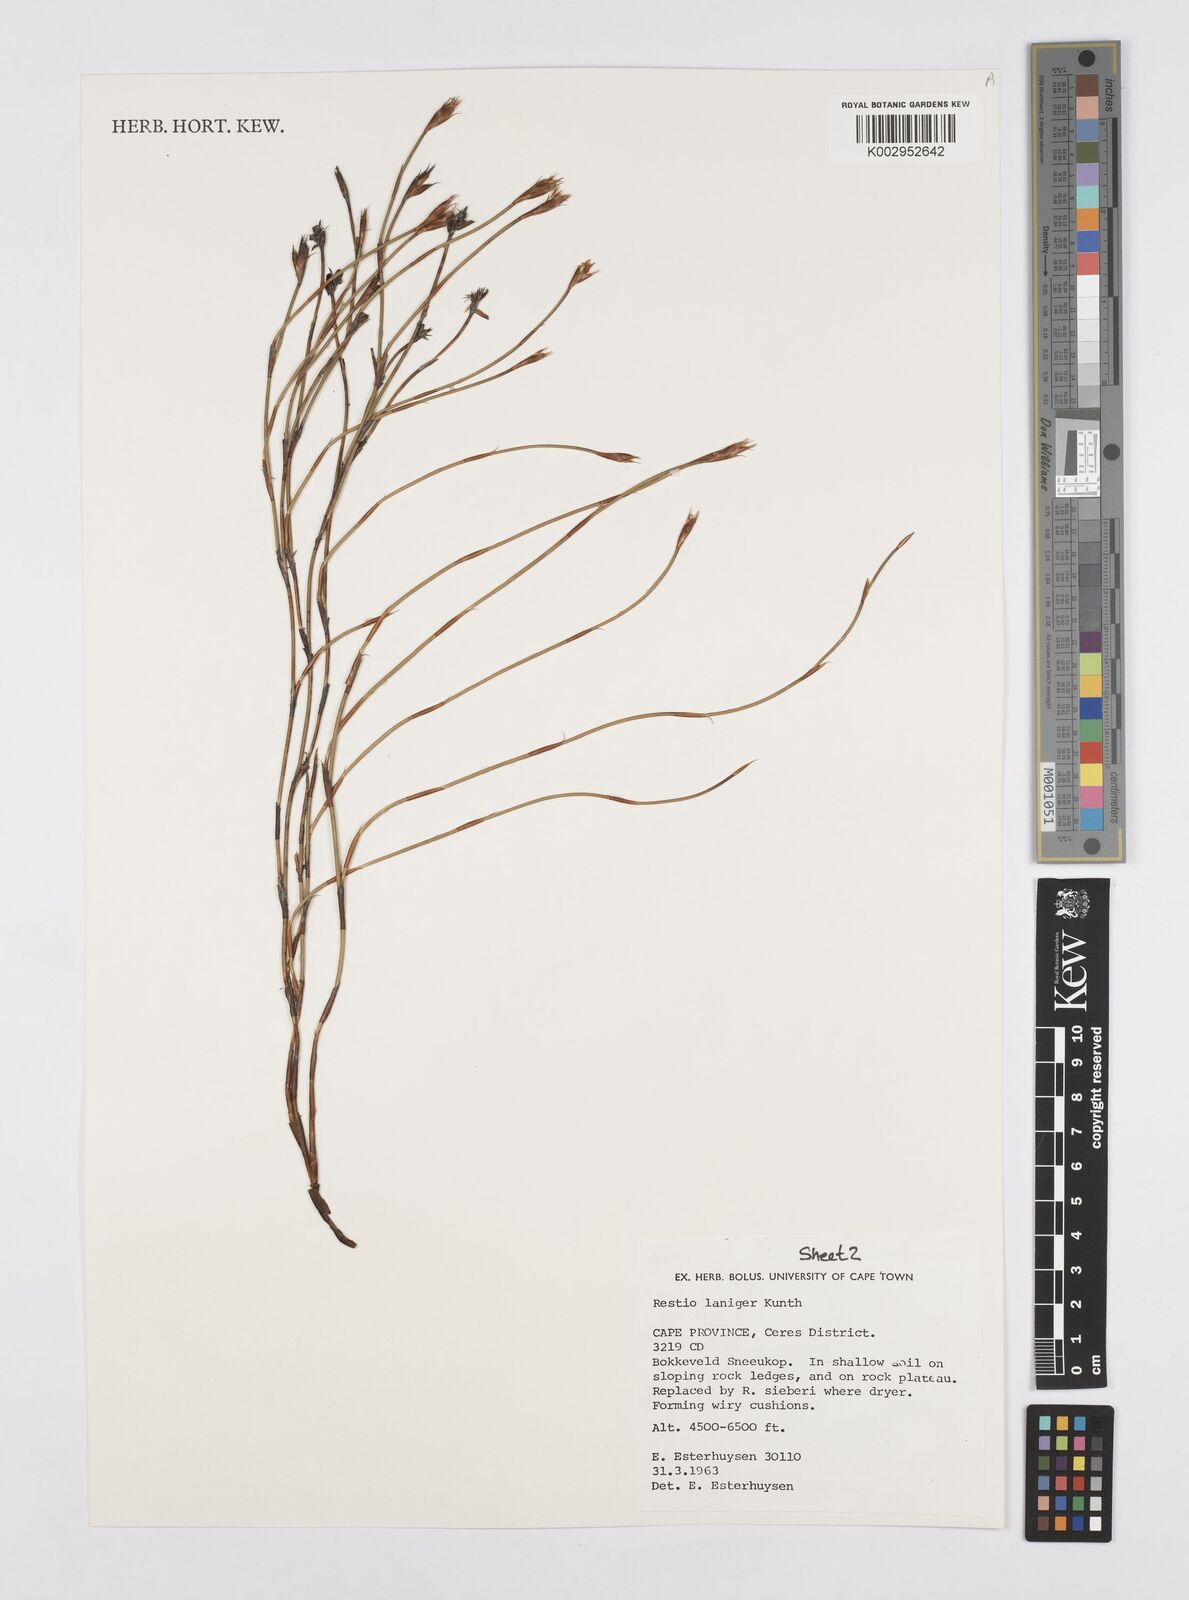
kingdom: Plantae
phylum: Tracheophyta
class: Liliopsida
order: Poales
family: Restionaceae
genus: Restio
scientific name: Restio laniger
